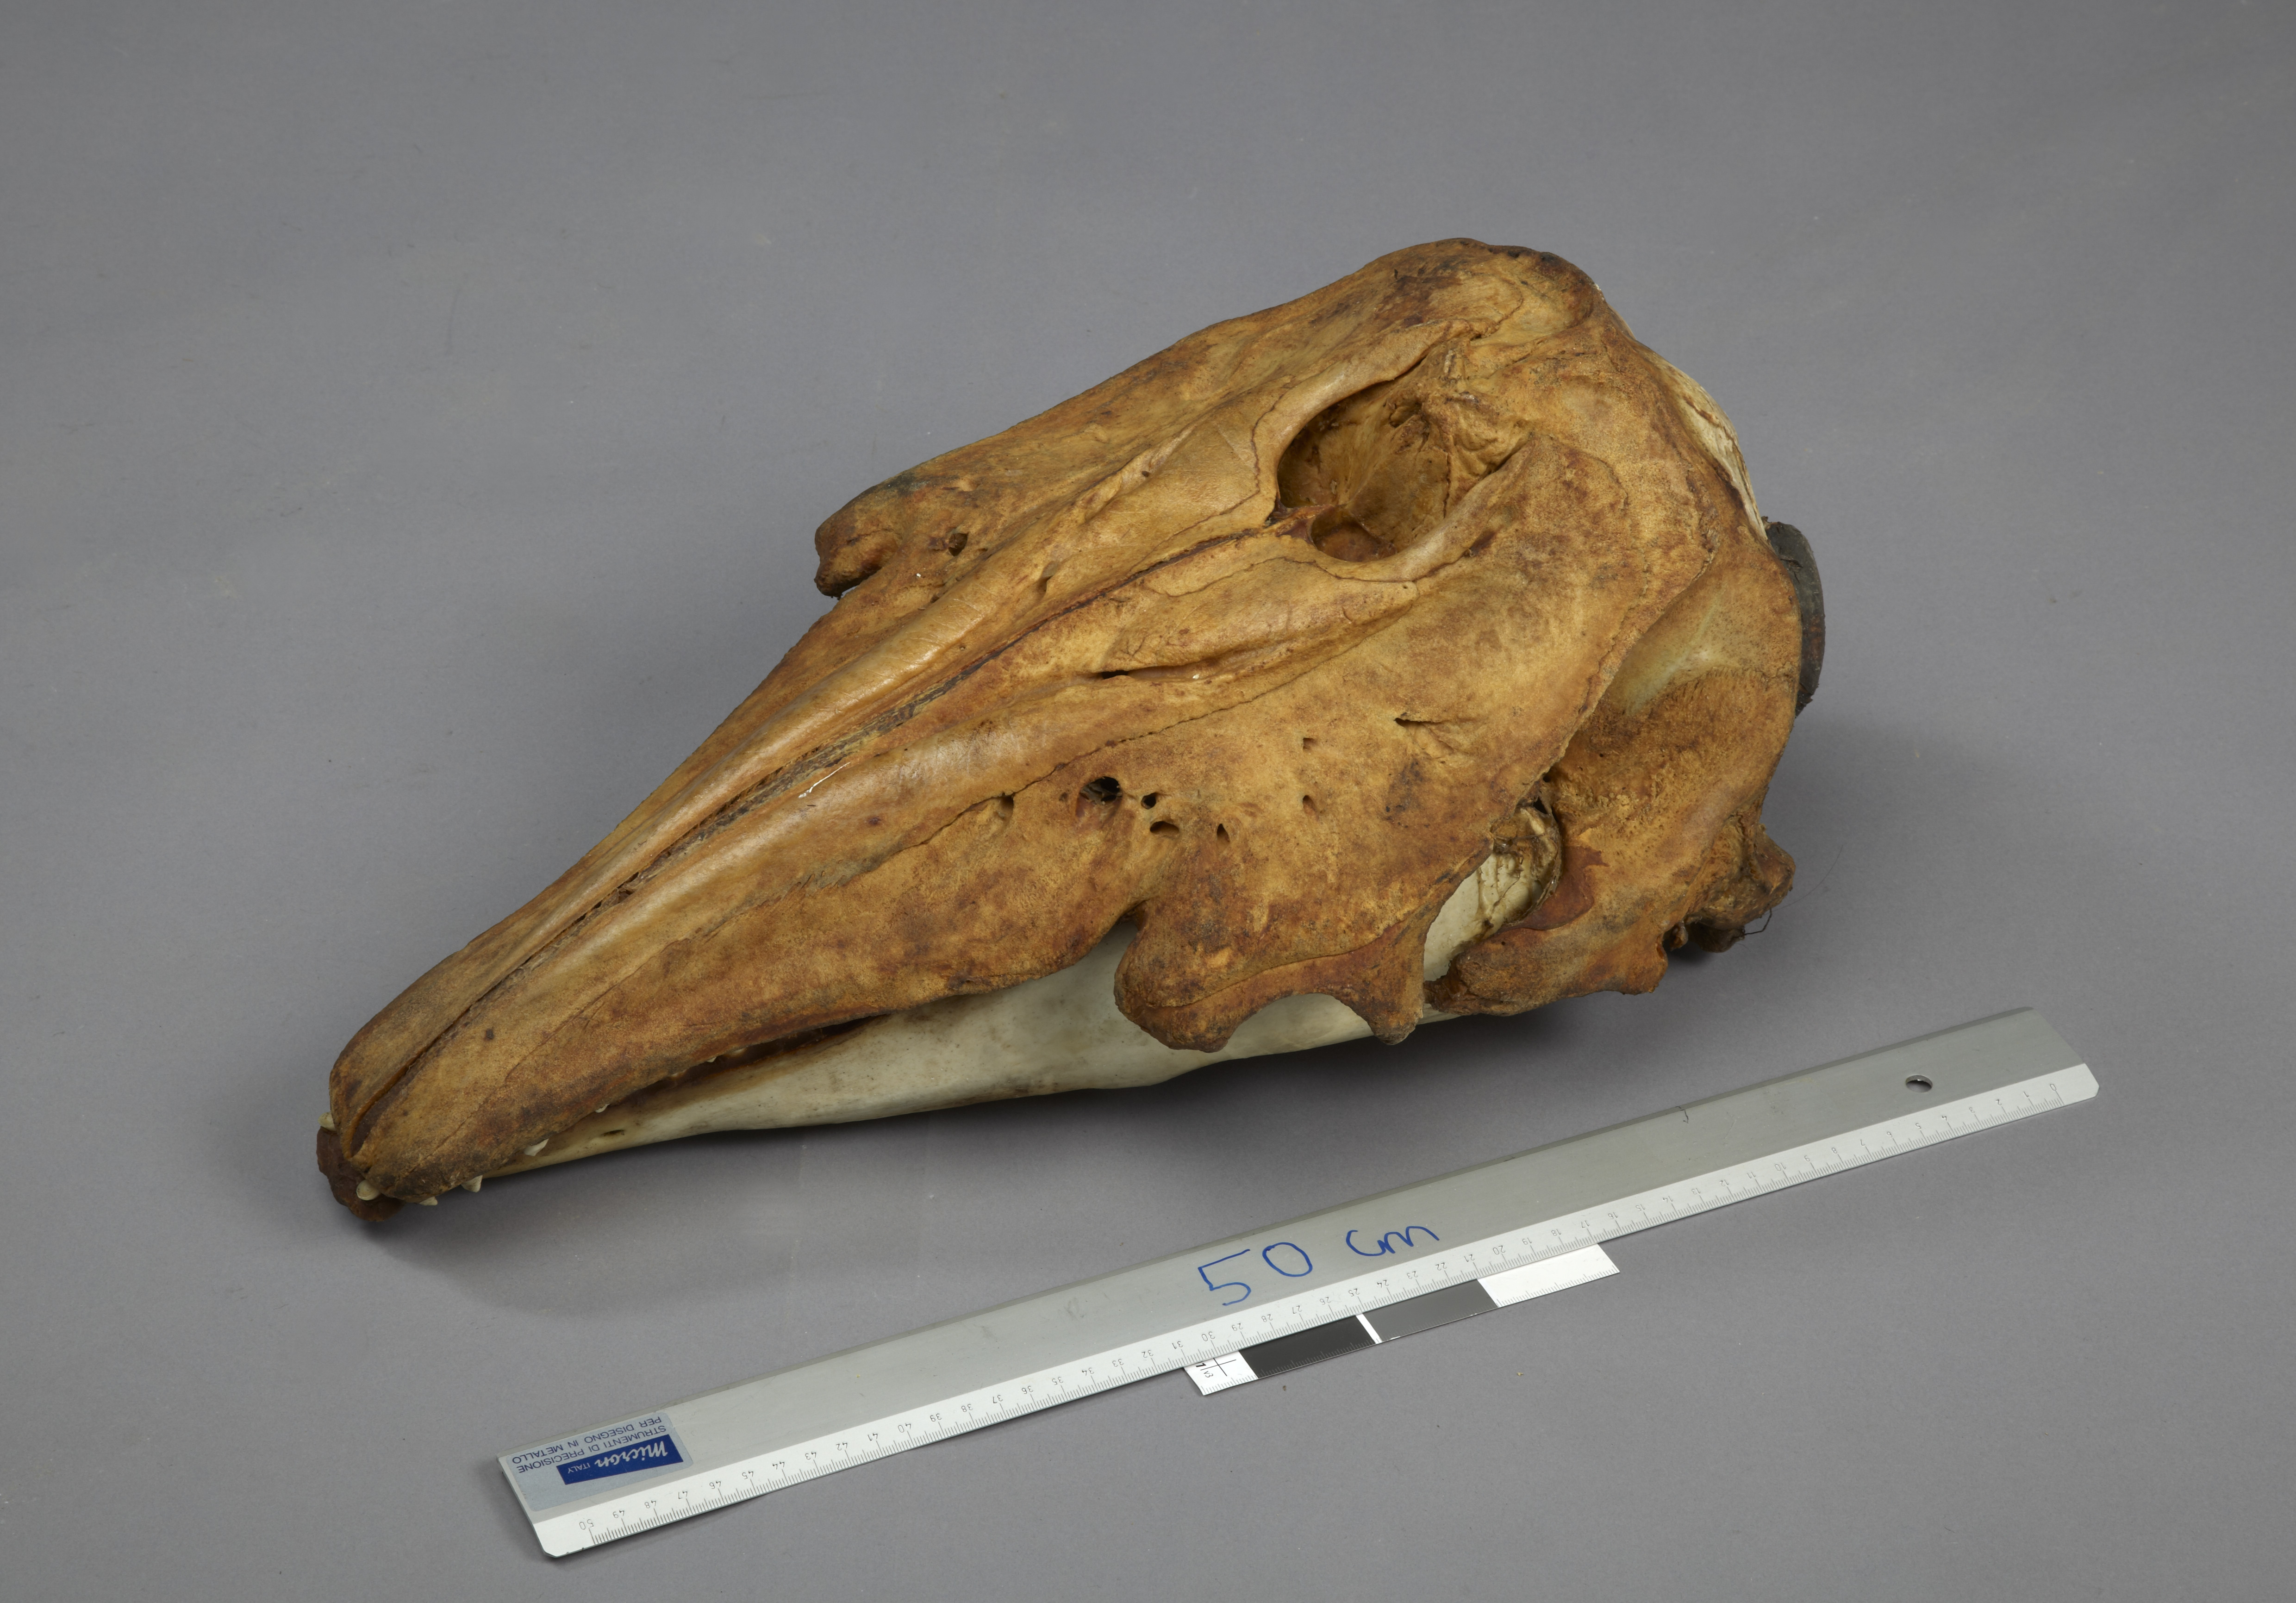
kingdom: Animalia
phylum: Chordata
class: Mammalia
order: Cetacea
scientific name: Cetacea
